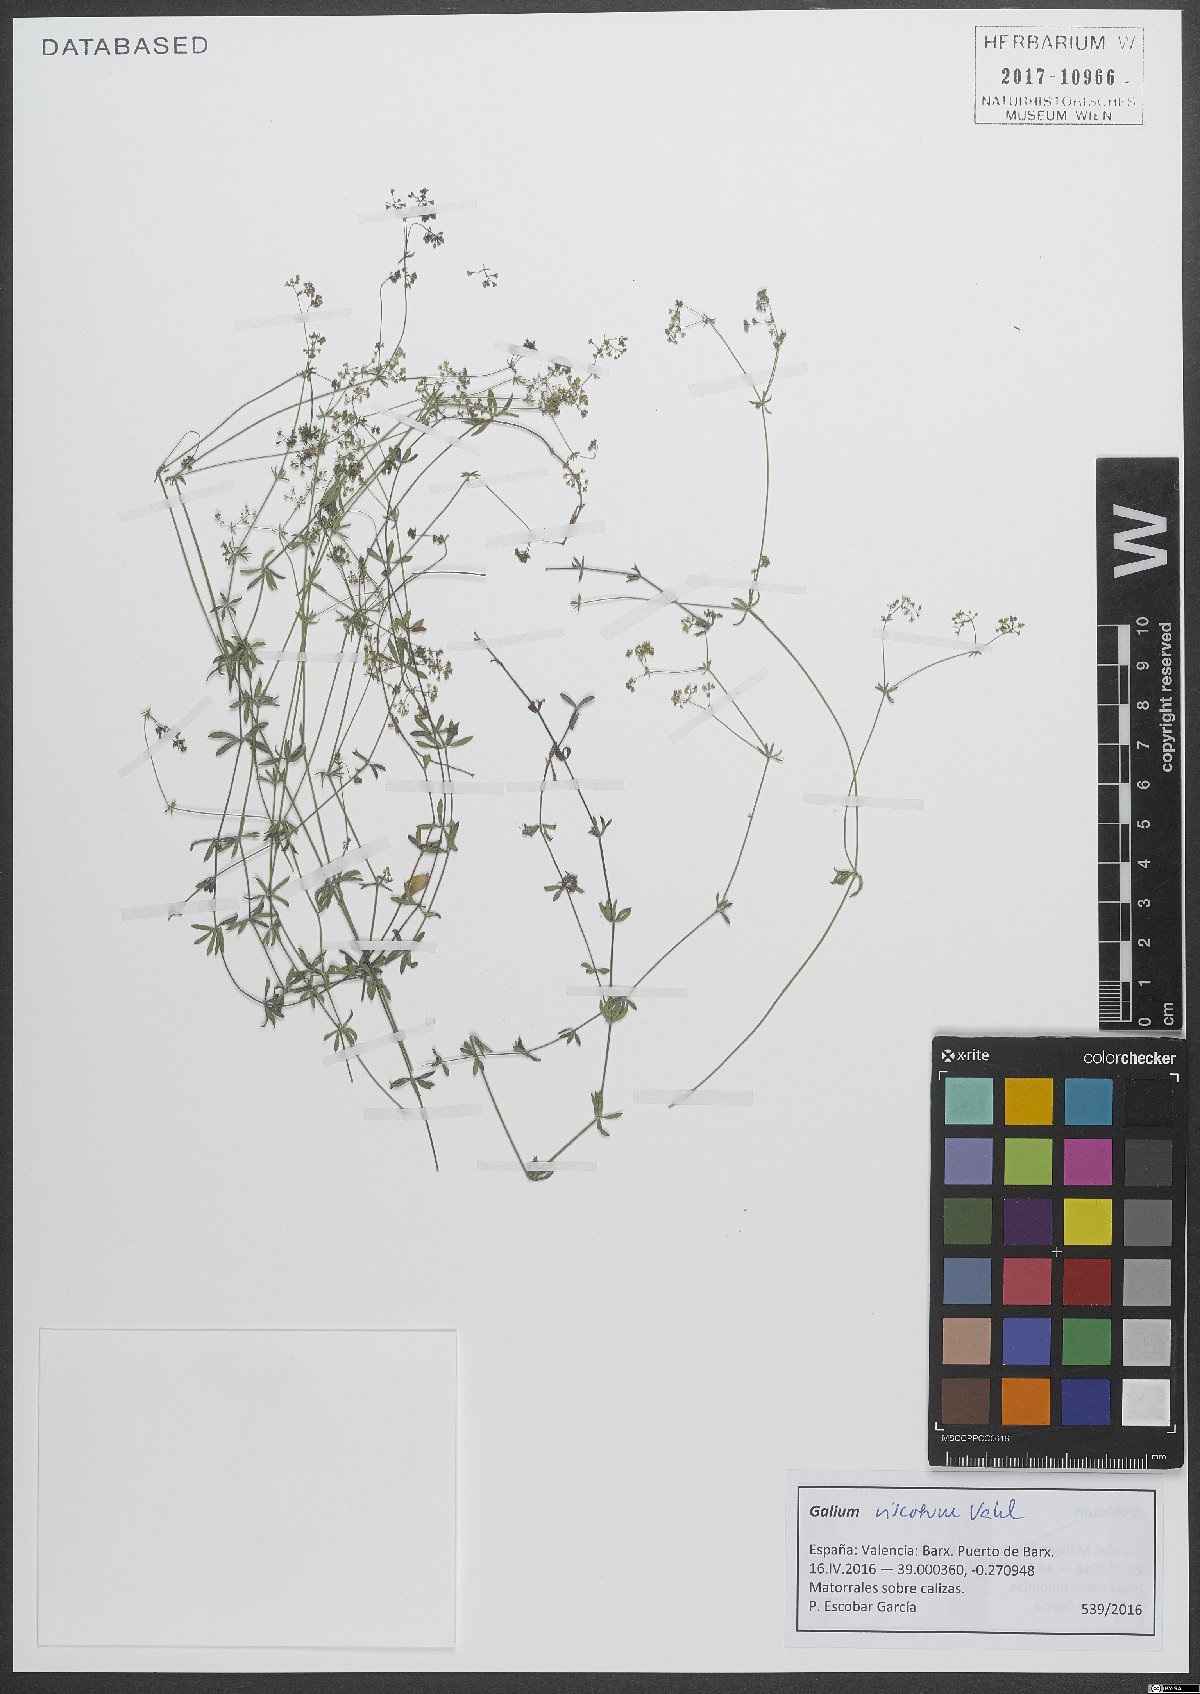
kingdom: Plantae
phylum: Tracheophyta
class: Magnoliopsida
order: Gentianales
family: Rubiaceae
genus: Galium
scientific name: Galium viscosum
